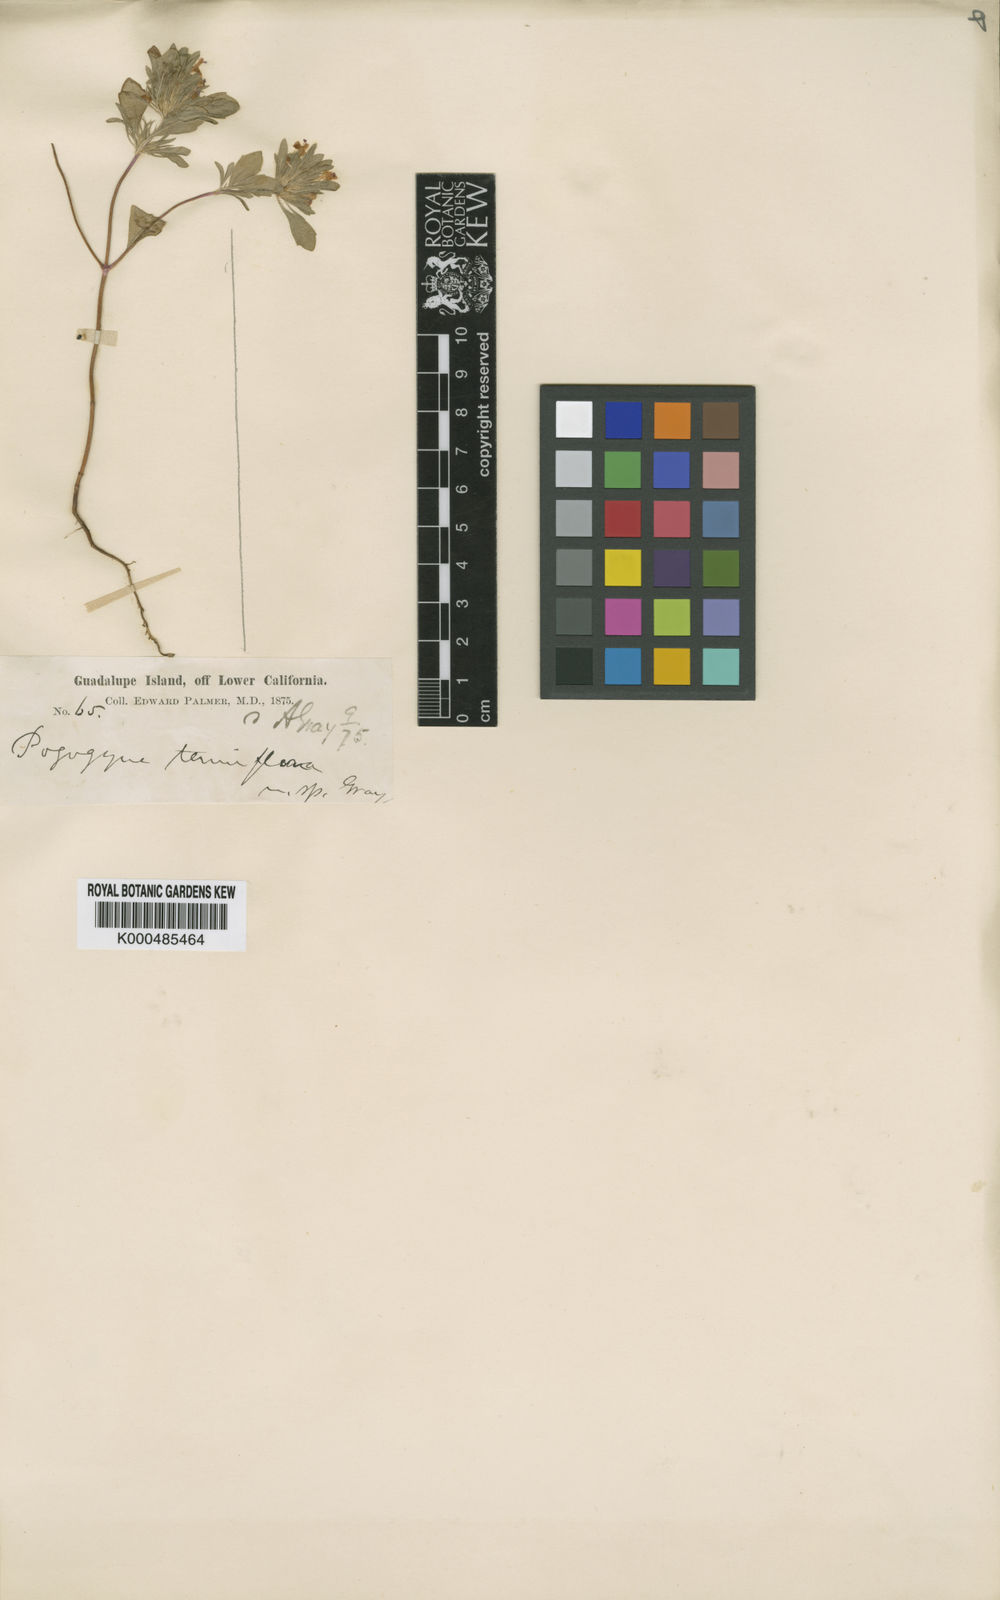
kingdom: Plantae
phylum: Tracheophyta
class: Magnoliopsida
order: Lamiales
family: Lamiaceae
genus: Pogogyne
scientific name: Pogogyne tenuiflora
